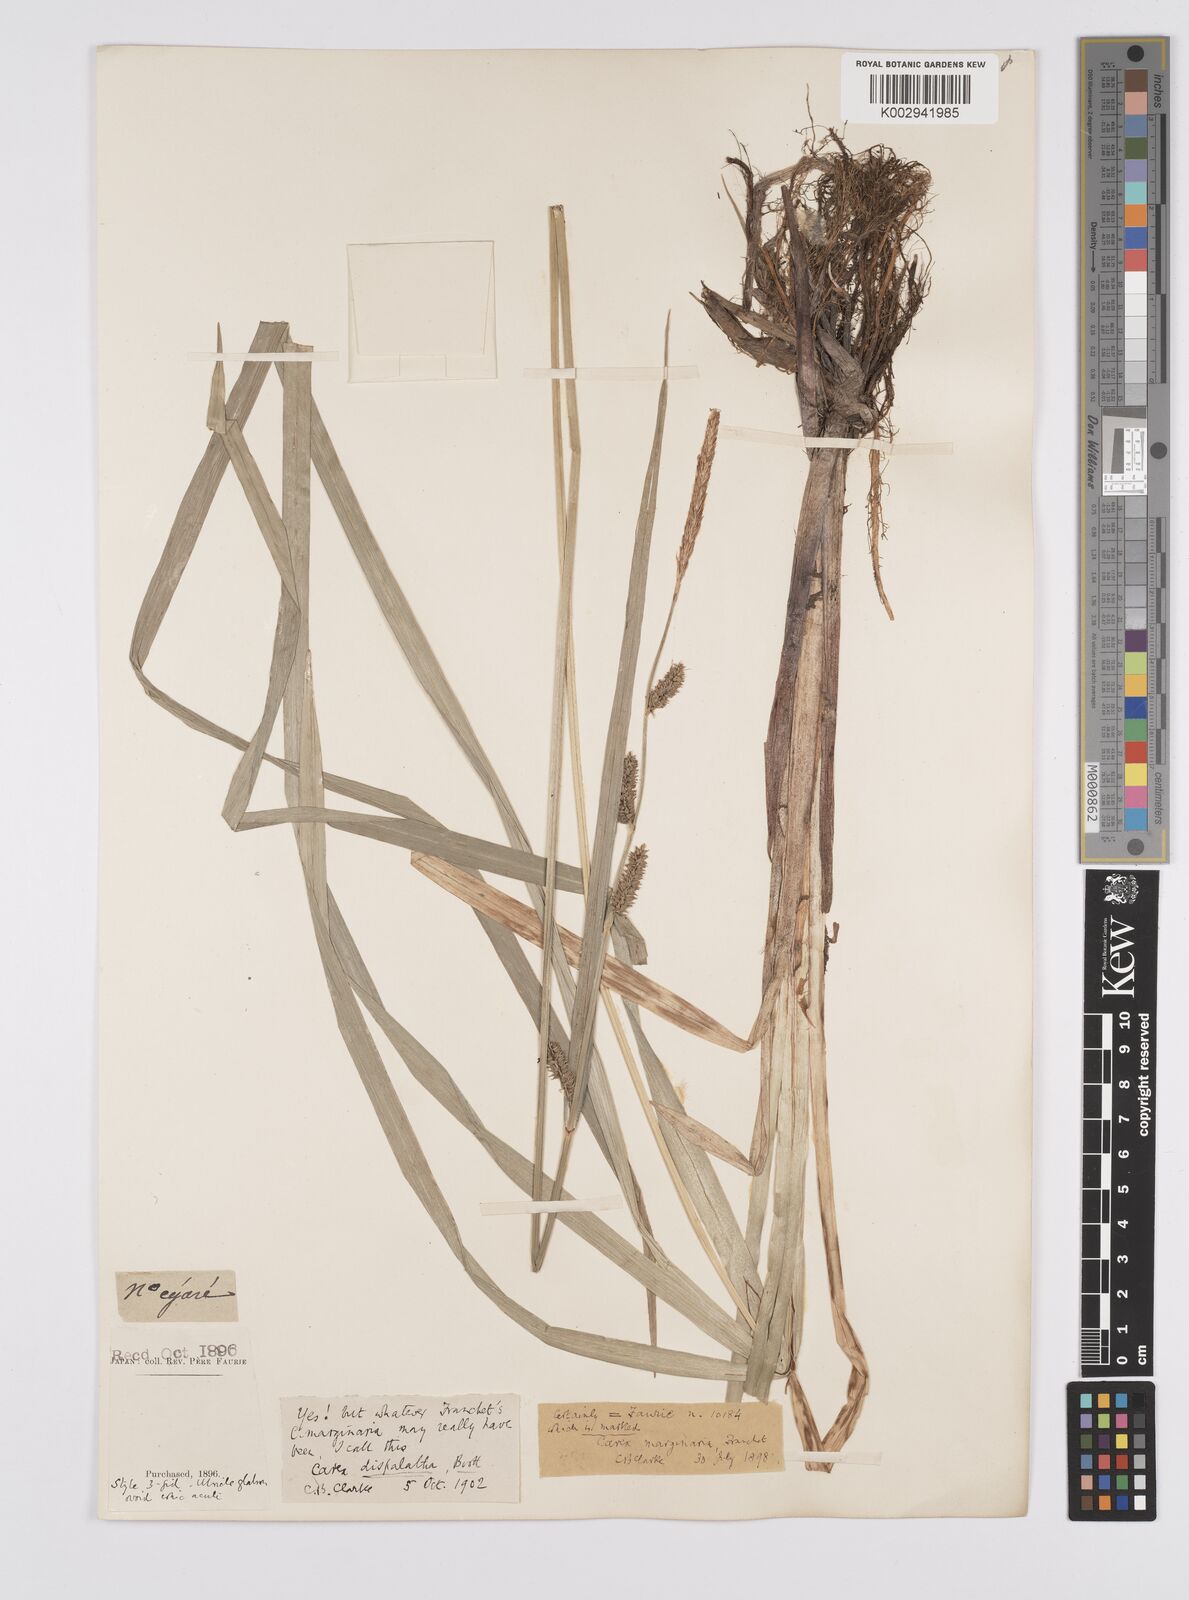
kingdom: Plantae
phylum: Tracheophyta
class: Liliopsida
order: Poales
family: Cyperaceae
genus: Carex
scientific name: Carex dispalata
